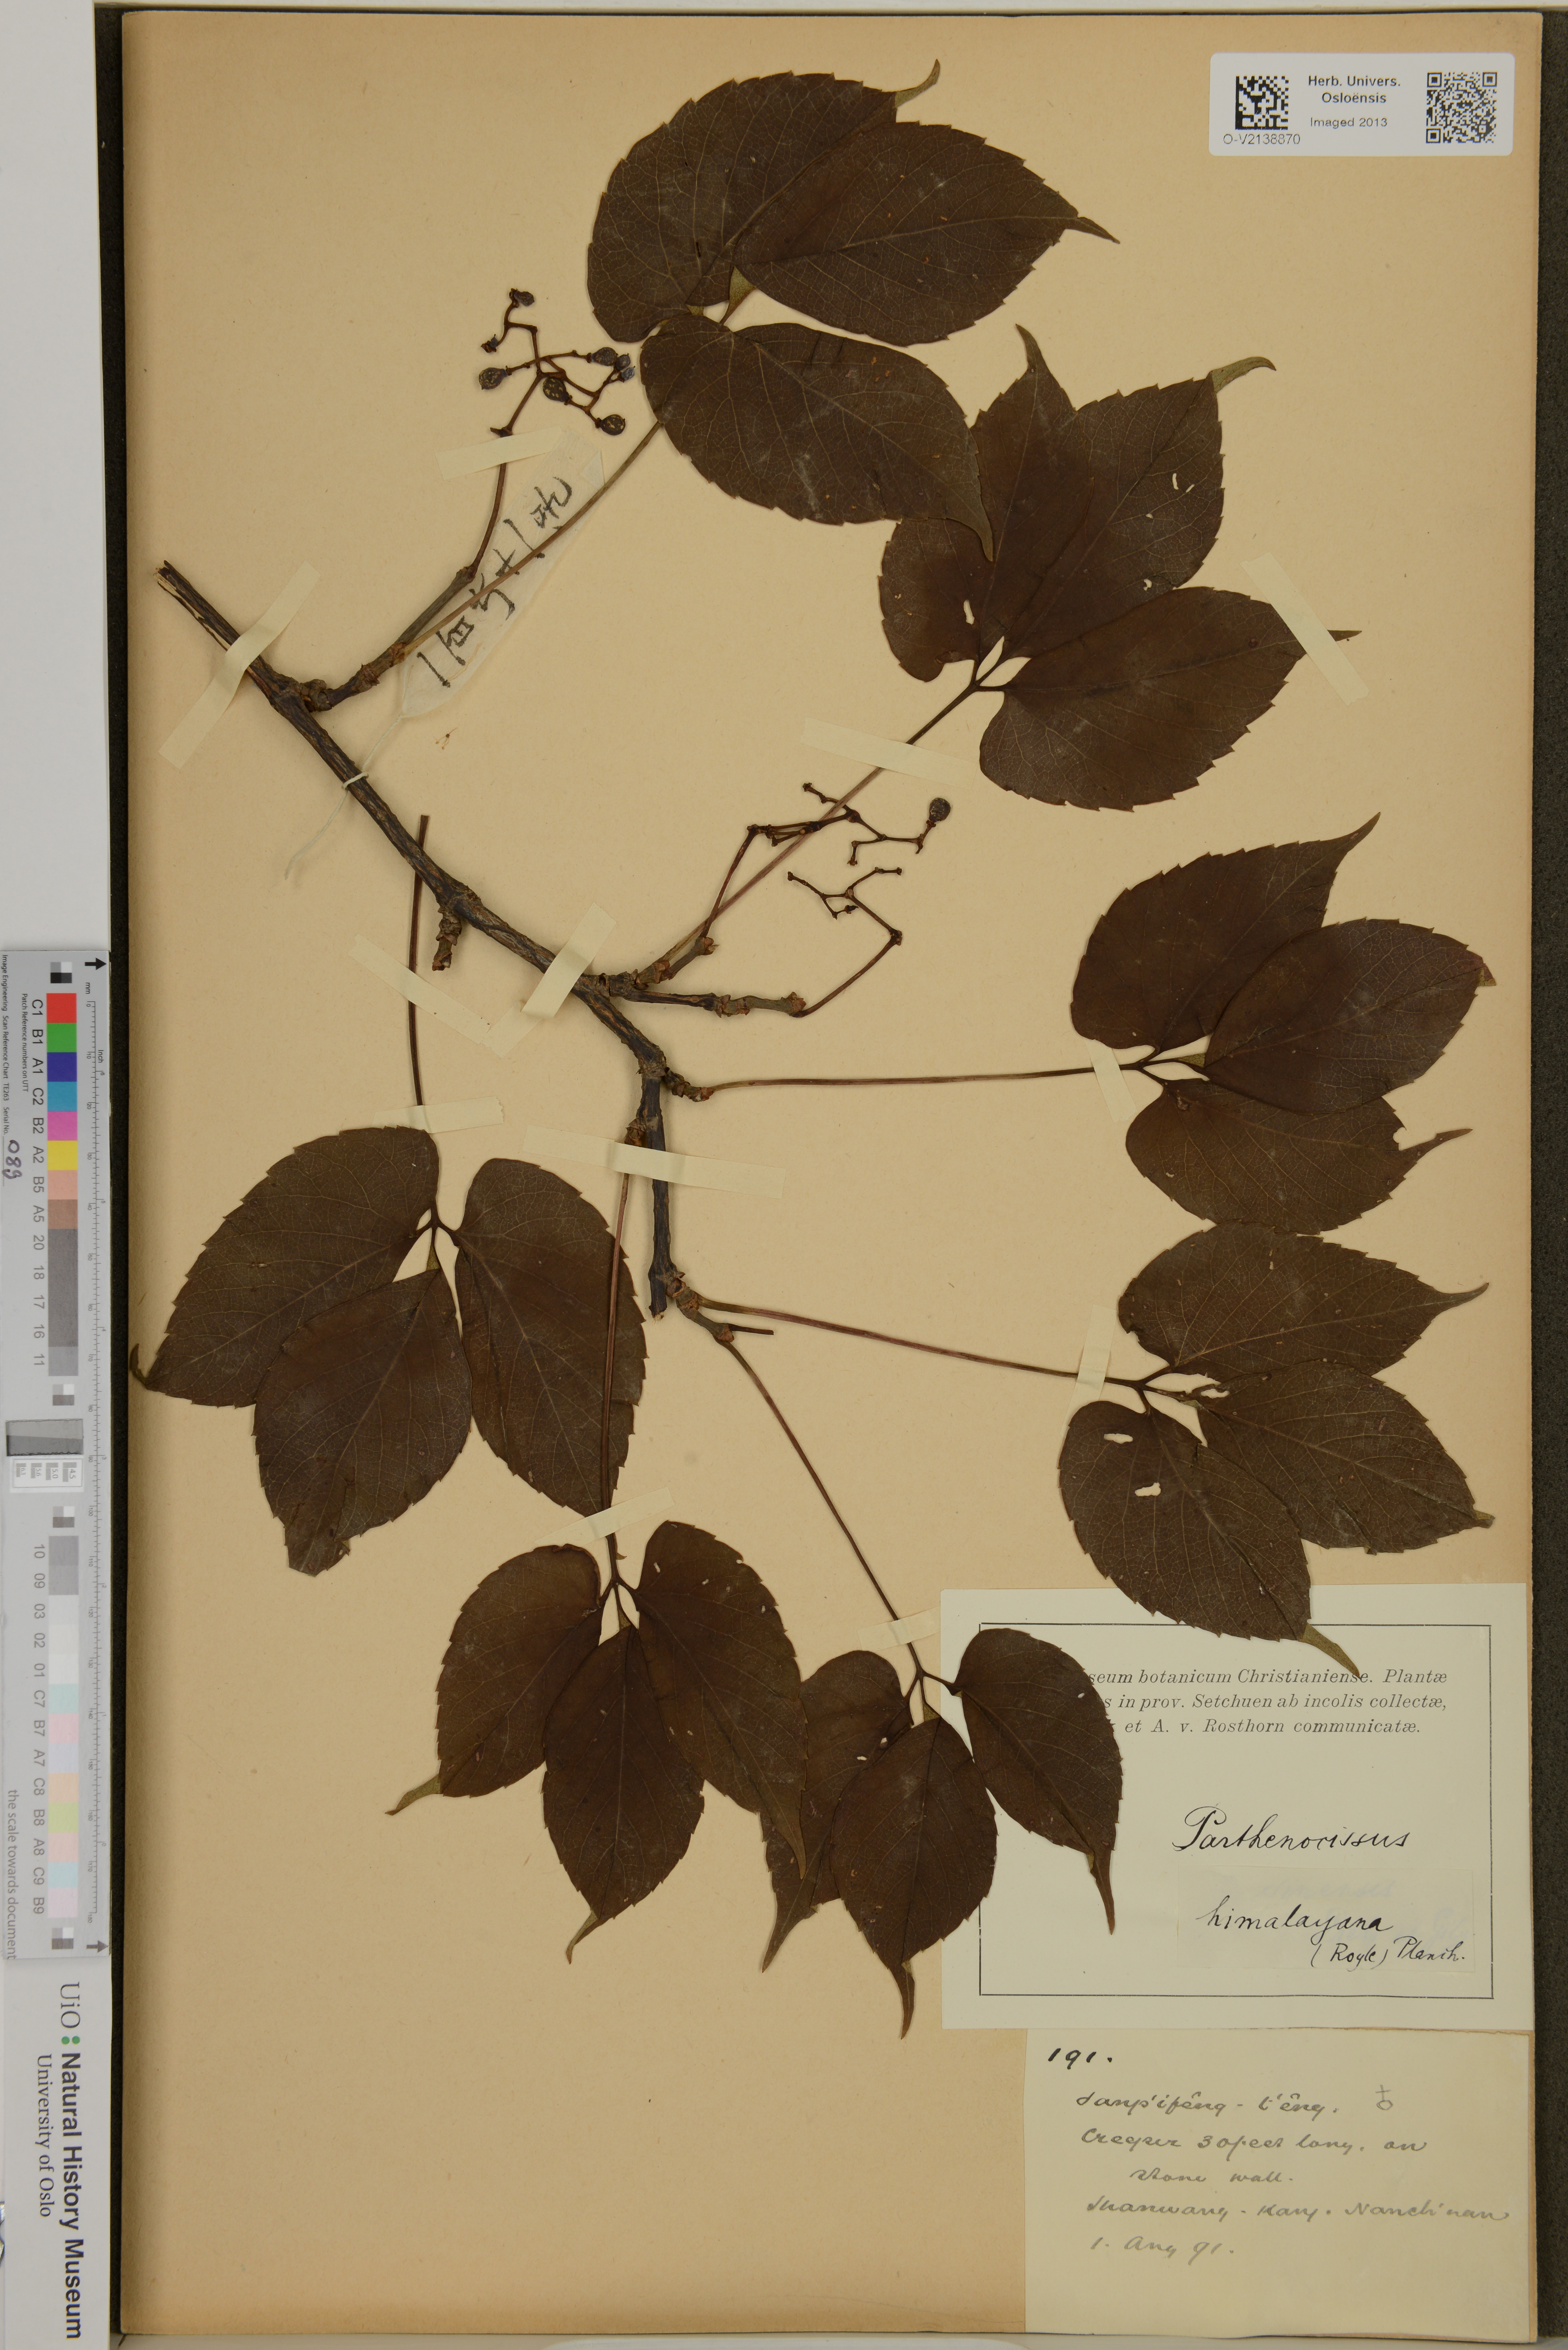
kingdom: Plantae
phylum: Tracheophyta
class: Magnoliopsida
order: Vitales
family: Vitaceae
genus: Parthenocissus
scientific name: Parthenocissus semicordata
